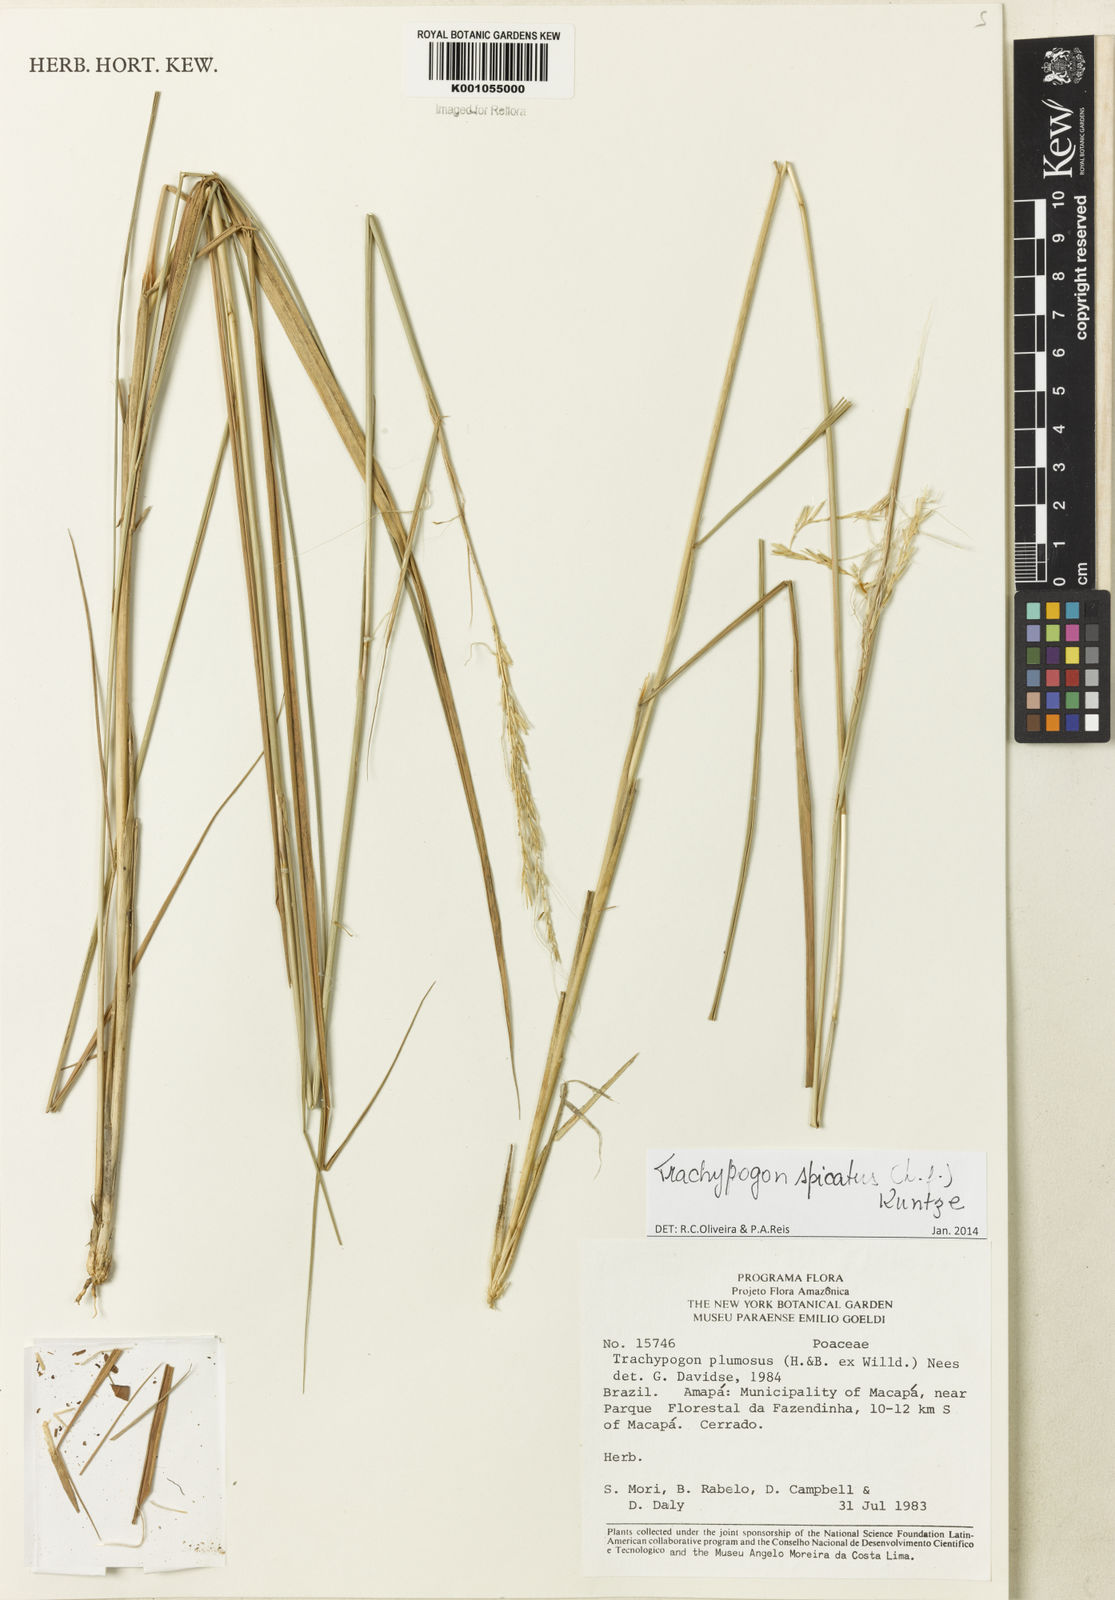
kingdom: Plantae
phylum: Tracheophyta
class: Liliopsida
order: Poales
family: Poaceae
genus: Trachypogon
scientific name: Trachypogon spicatus
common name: Crinkle-awn
